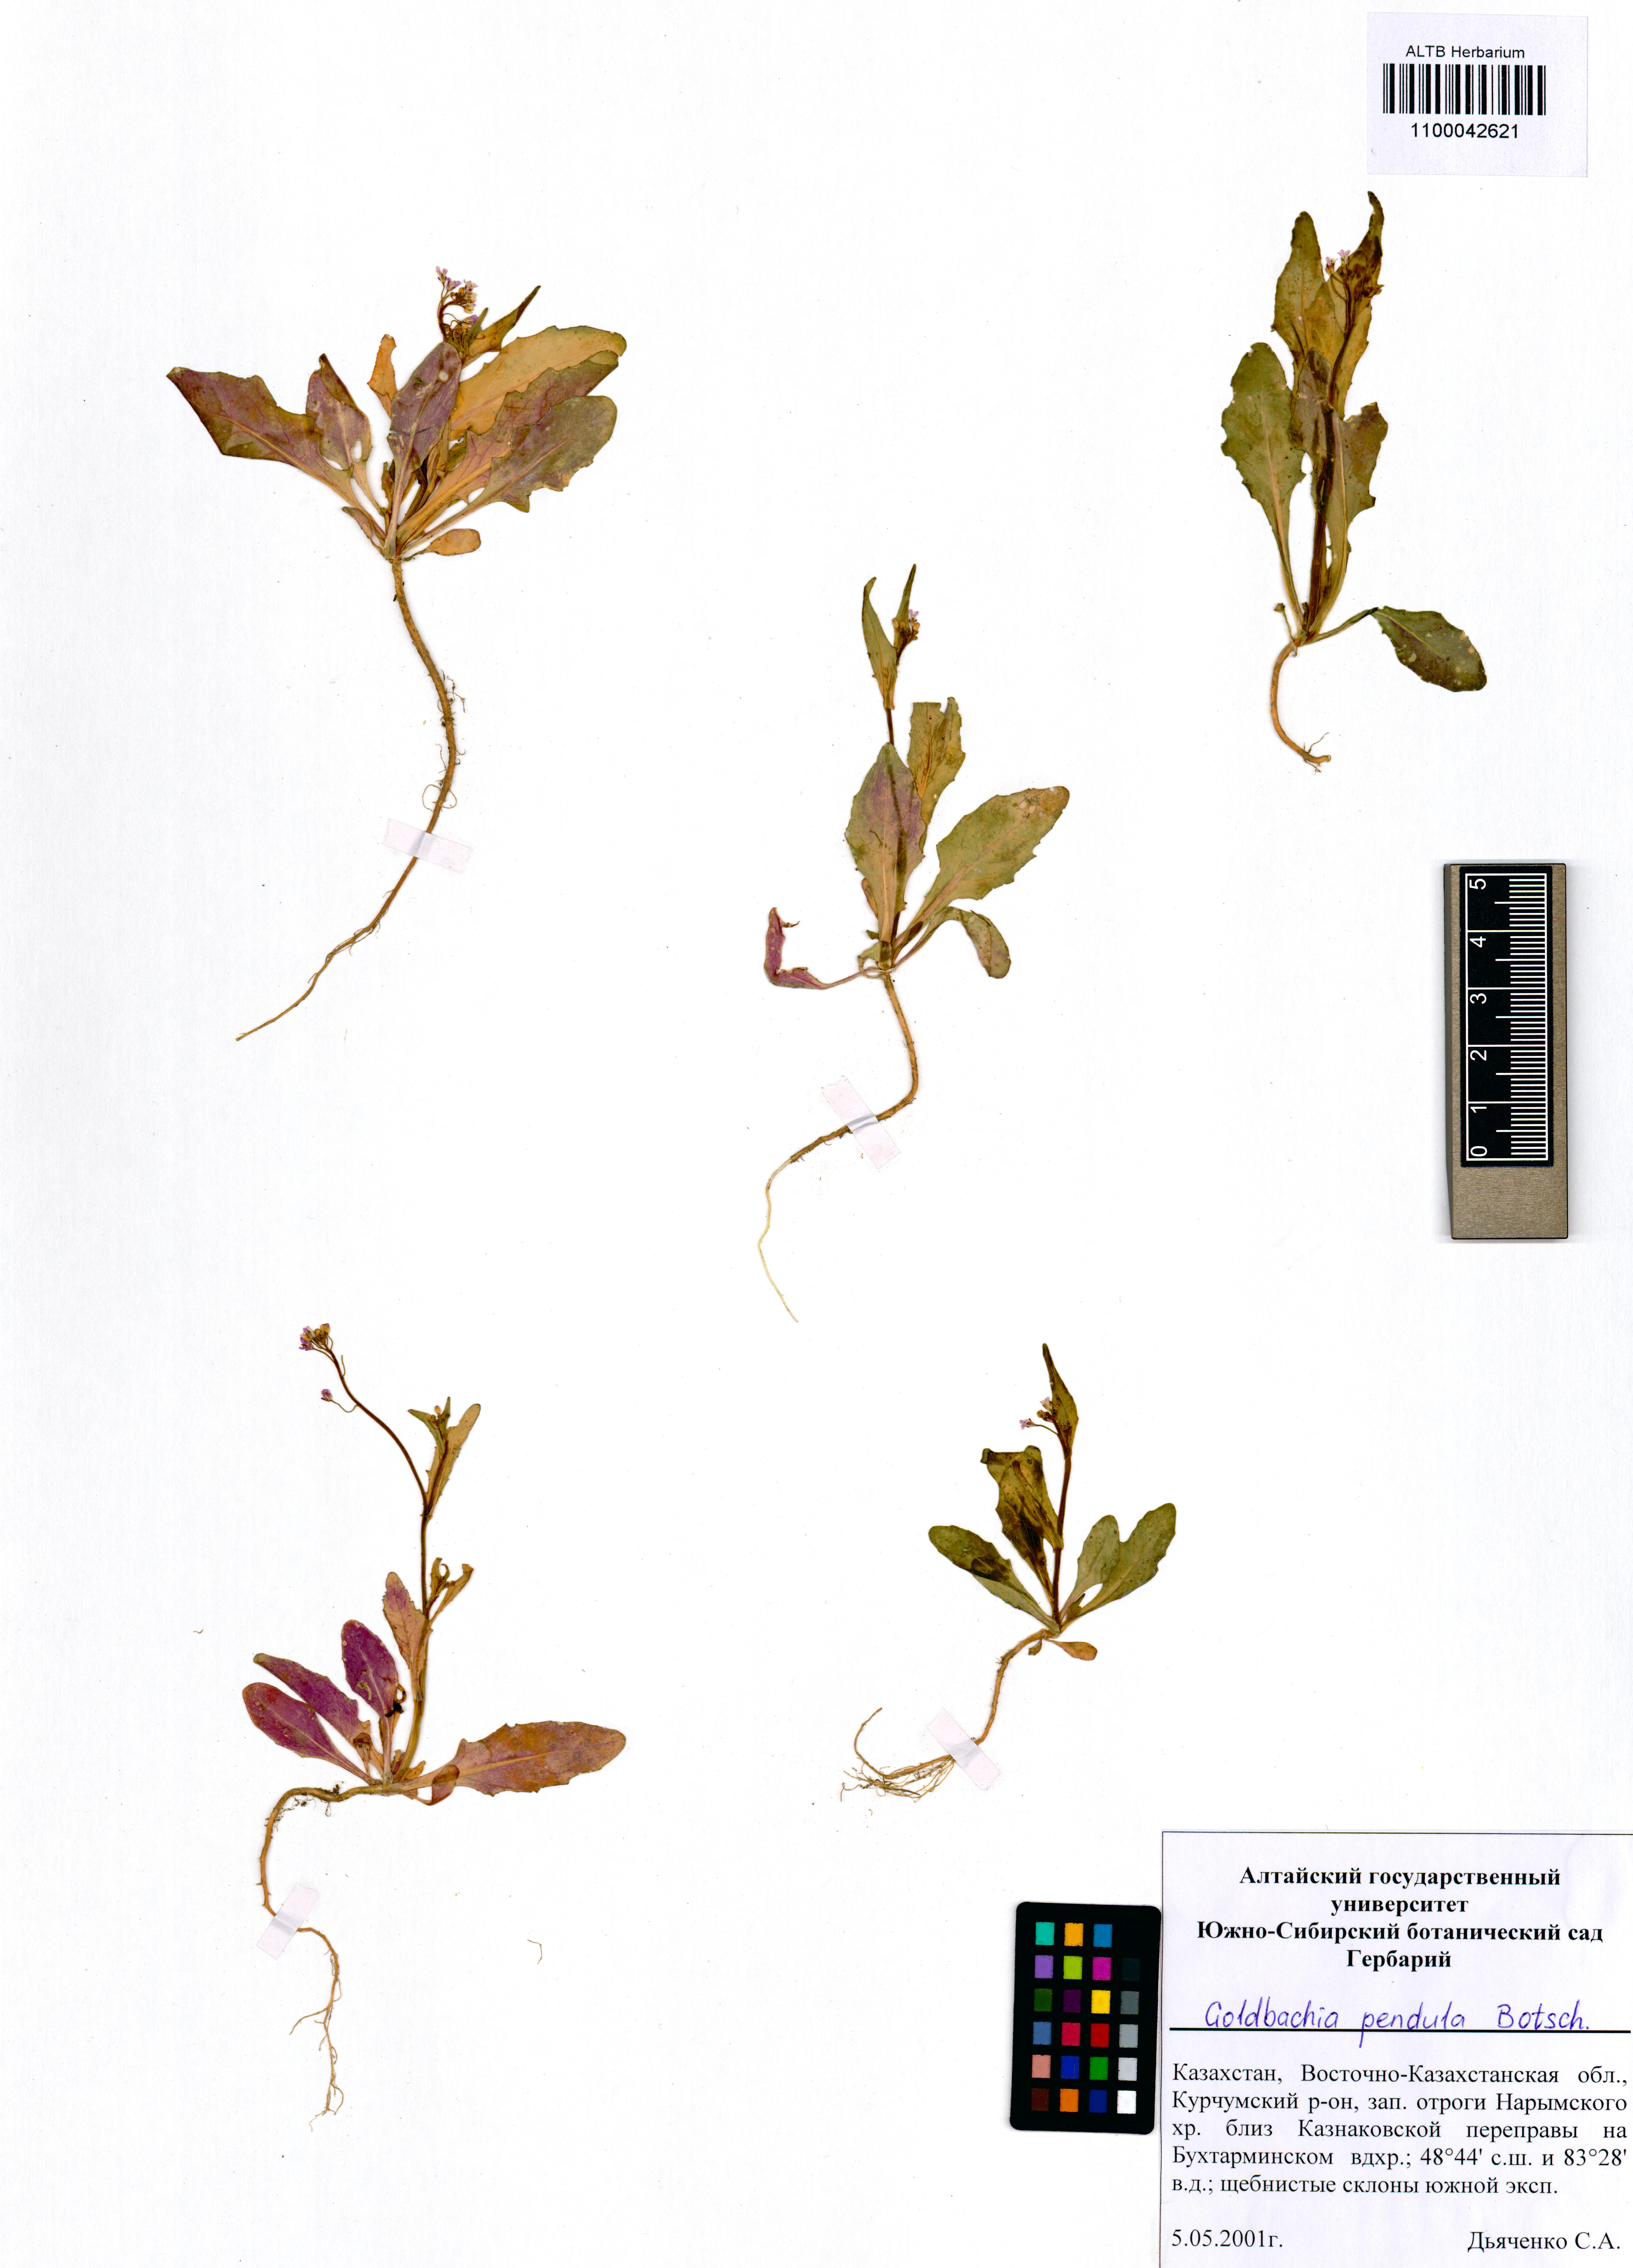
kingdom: Plantae
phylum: Tracheophyta
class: Magnoliopsida
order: Brassicales
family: Brassicaceae
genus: Goldbachia
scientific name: Goldbachia pendula
